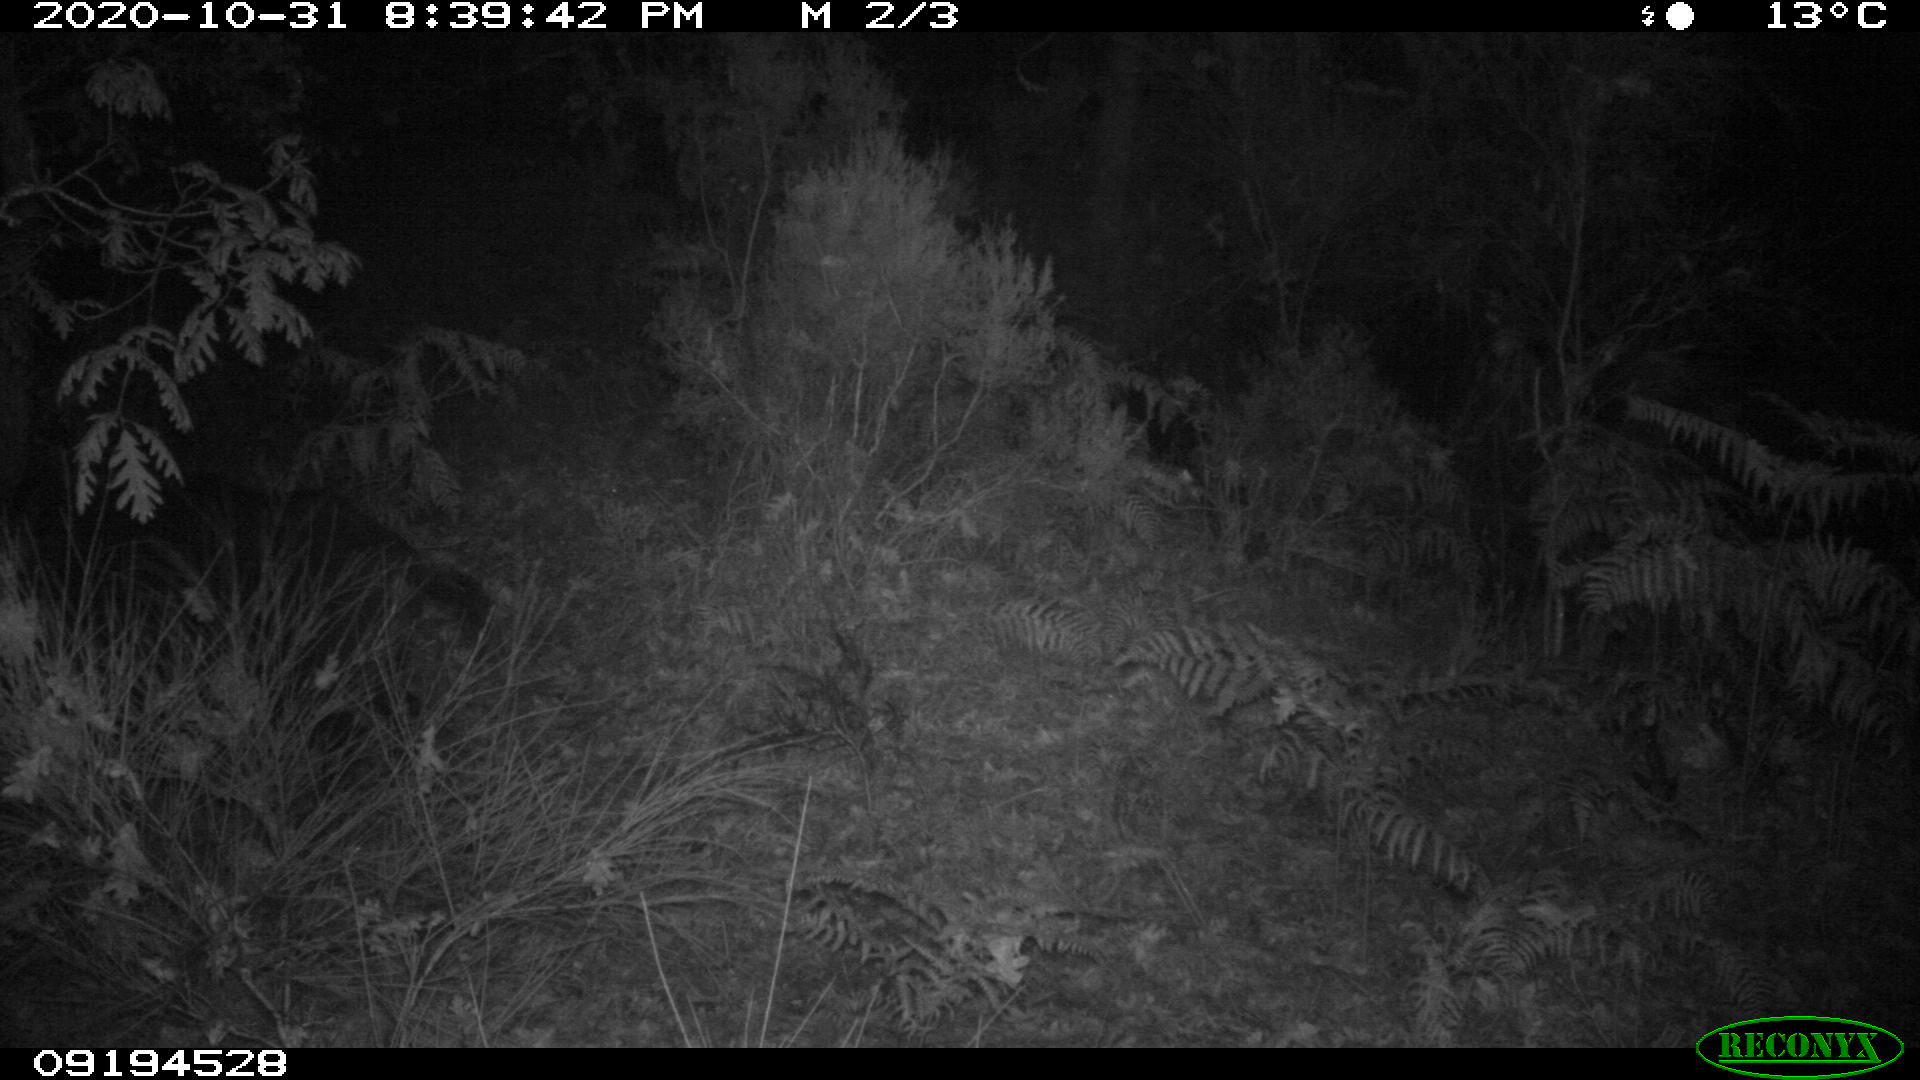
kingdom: Animalia
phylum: Chordata
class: Mammalia
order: Artiodactyla
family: Suidae
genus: Sus
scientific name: Sus scrofa
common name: Wild boar
